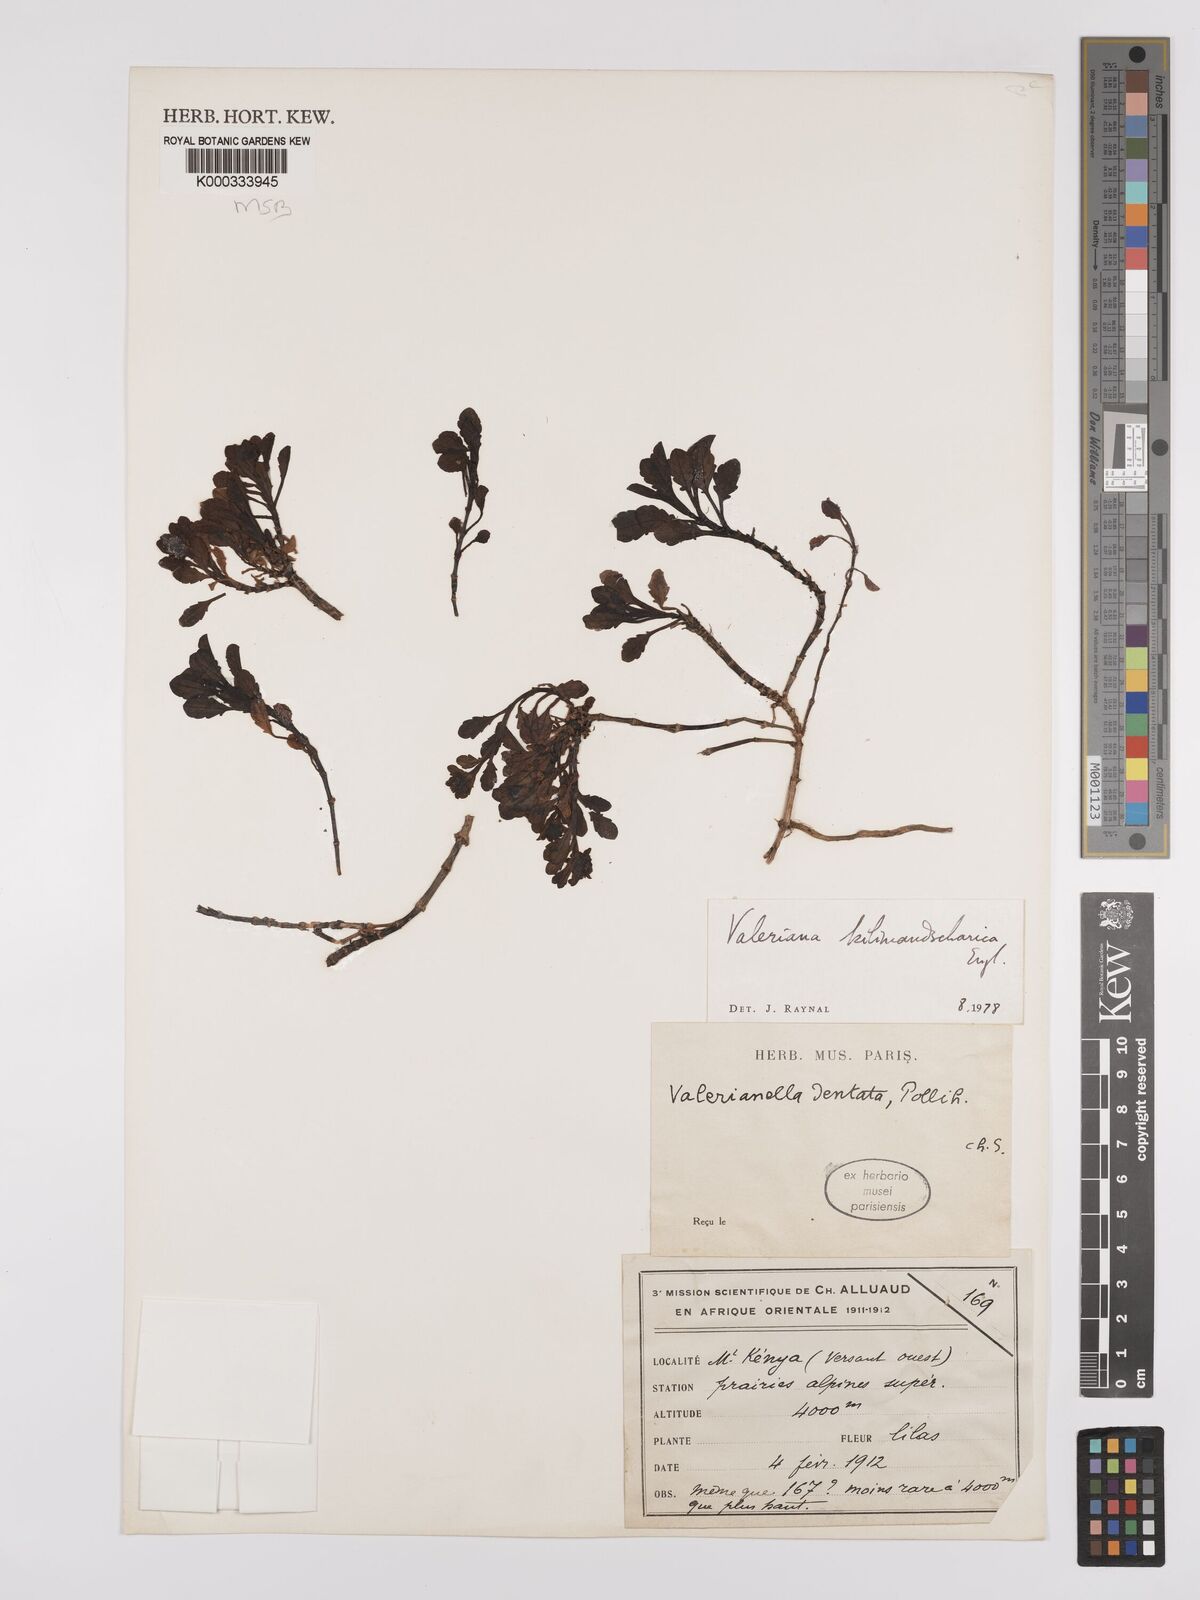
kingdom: Plantae
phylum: Tracheophyta
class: Magnoliopsida
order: Dipsacales
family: Caprifoliaceae
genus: Valeriana
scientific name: Valeriana kilimandscharica
